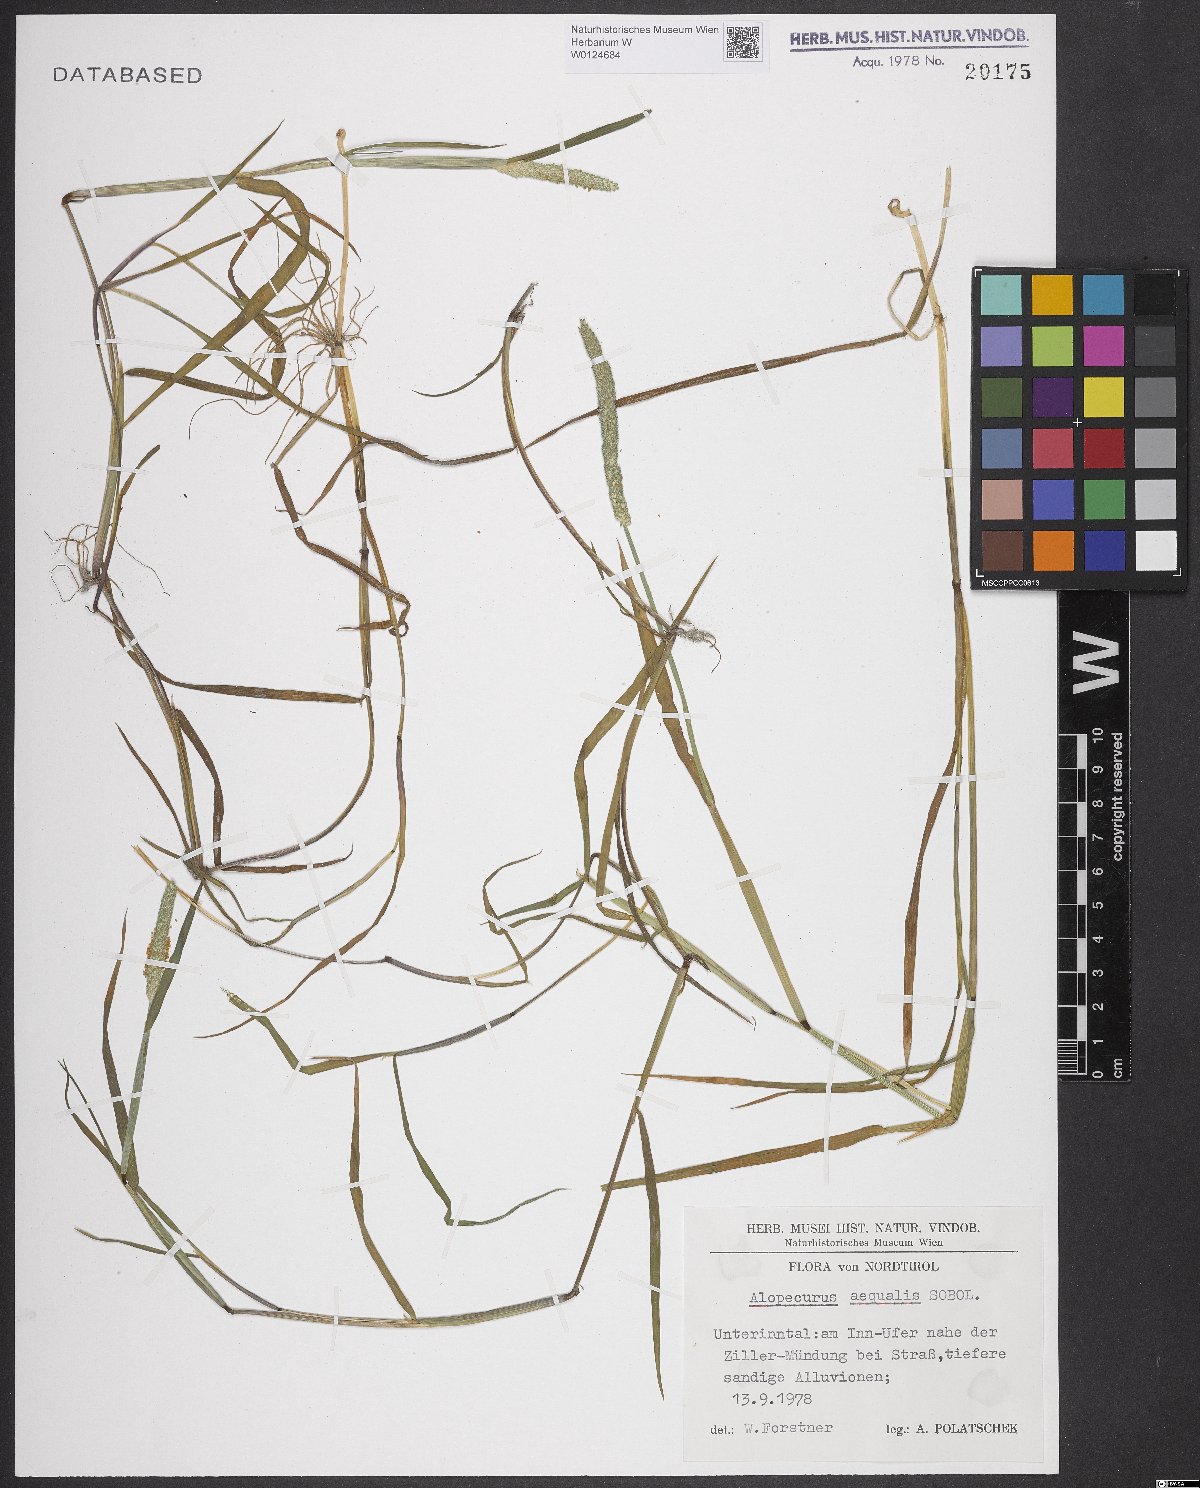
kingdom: Plantae
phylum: Tracheophyta
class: Liliopsida
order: Poales
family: Poaceae
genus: Alopecurus
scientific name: Alopecurus aequalis
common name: Orange foxtail
